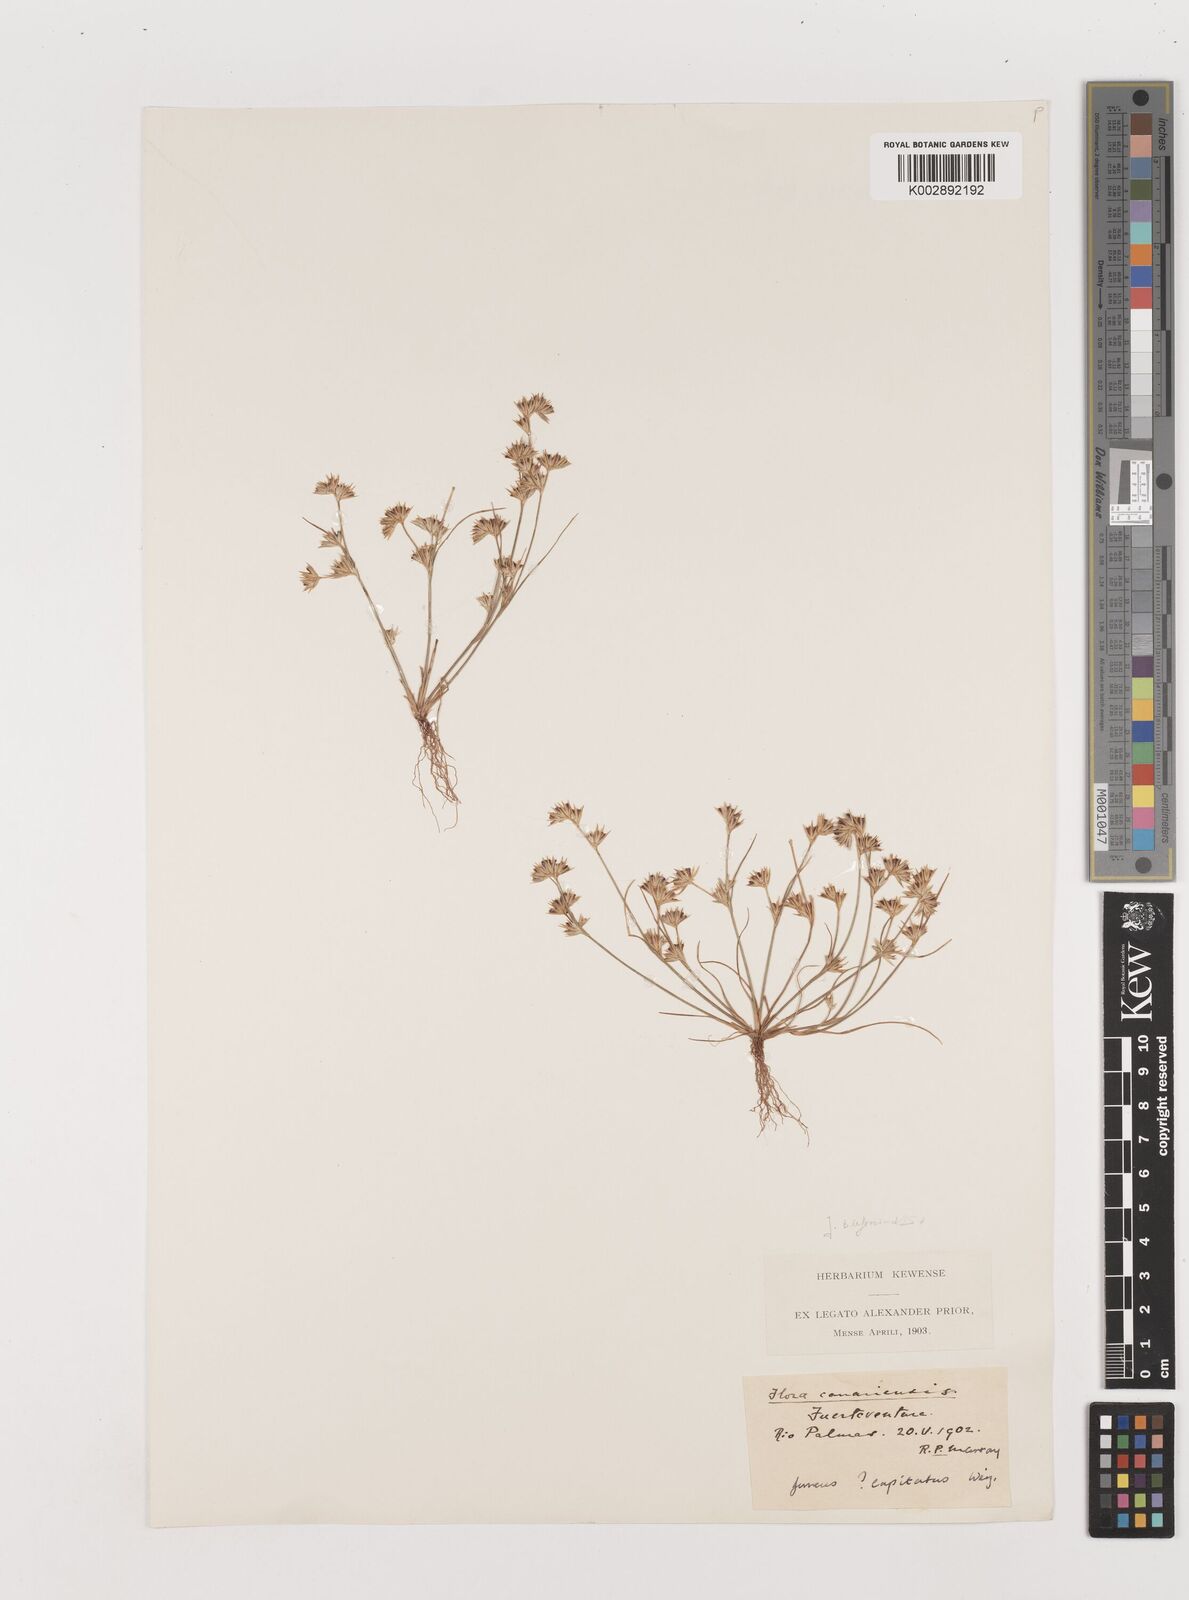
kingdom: Plantae
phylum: Tracheophyta
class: Liliopsida
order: Poales
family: Juncaceae
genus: Juncus
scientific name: Juncus capitatus
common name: Dwarf rush
